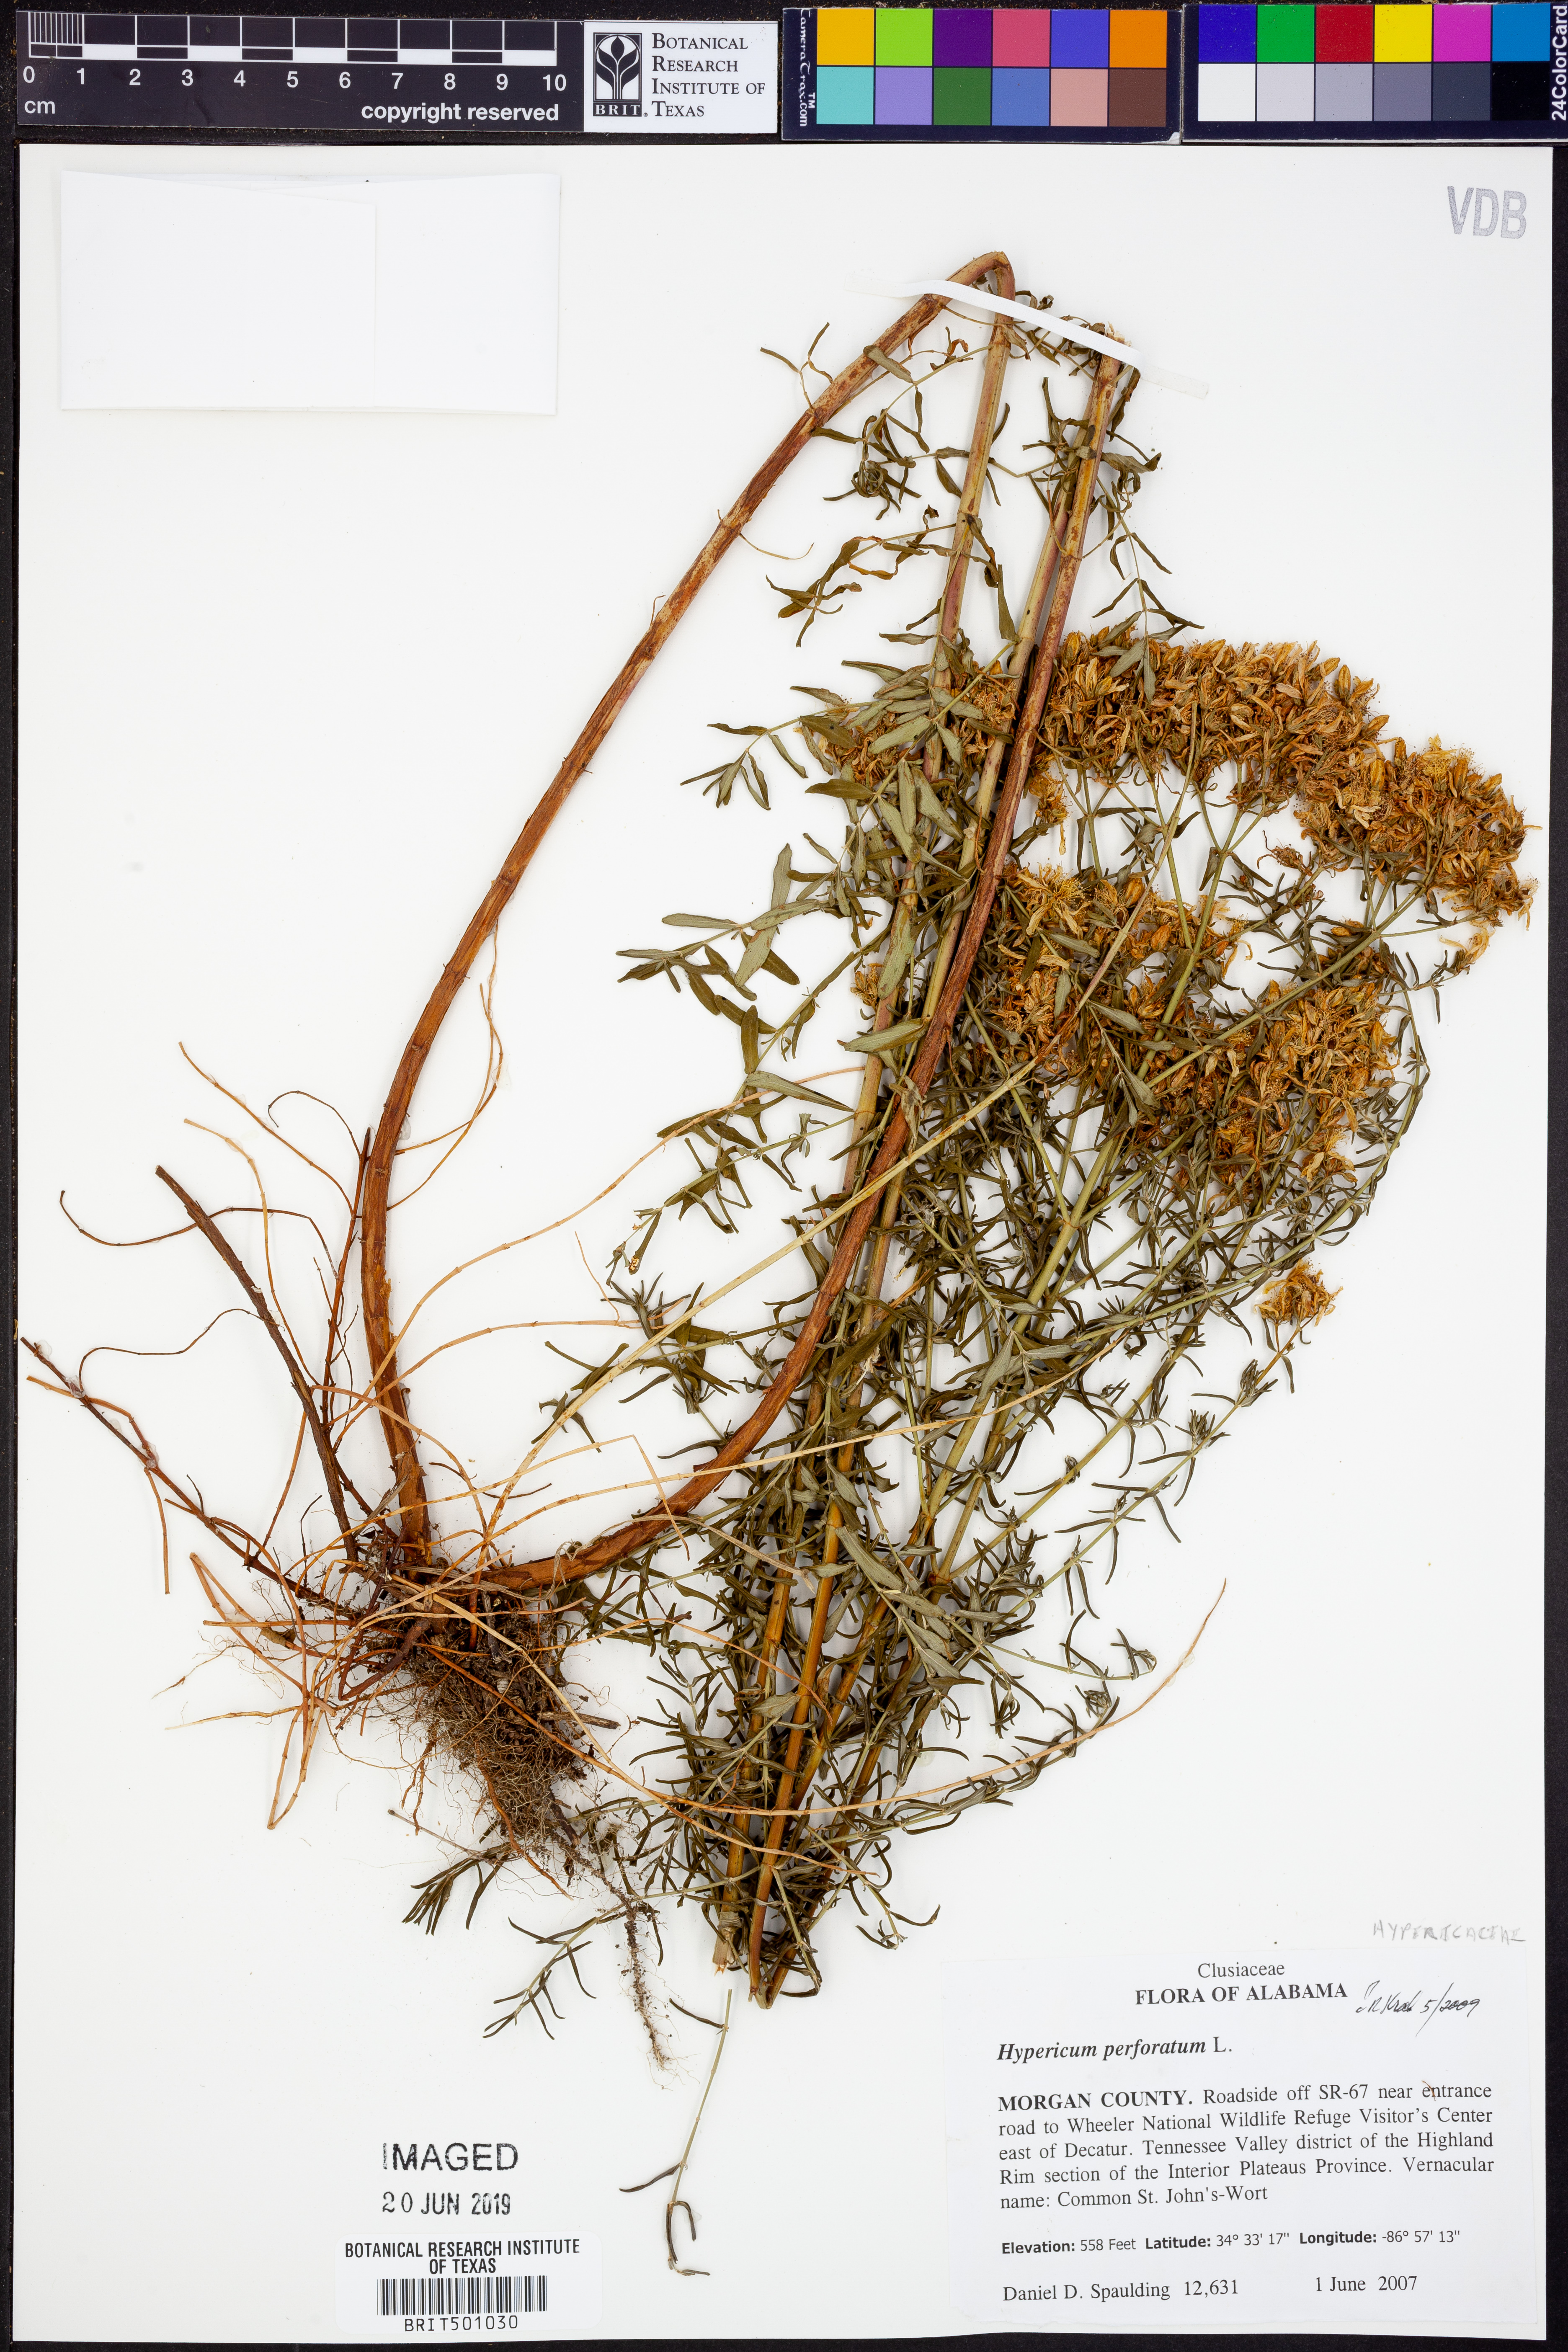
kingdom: Plantae
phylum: Tracheophyta
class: Magnoliopsida
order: Malpighiales
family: Hypericaceae
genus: Hypericum
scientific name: Hypericum perforatum
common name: Common st. johnswort
